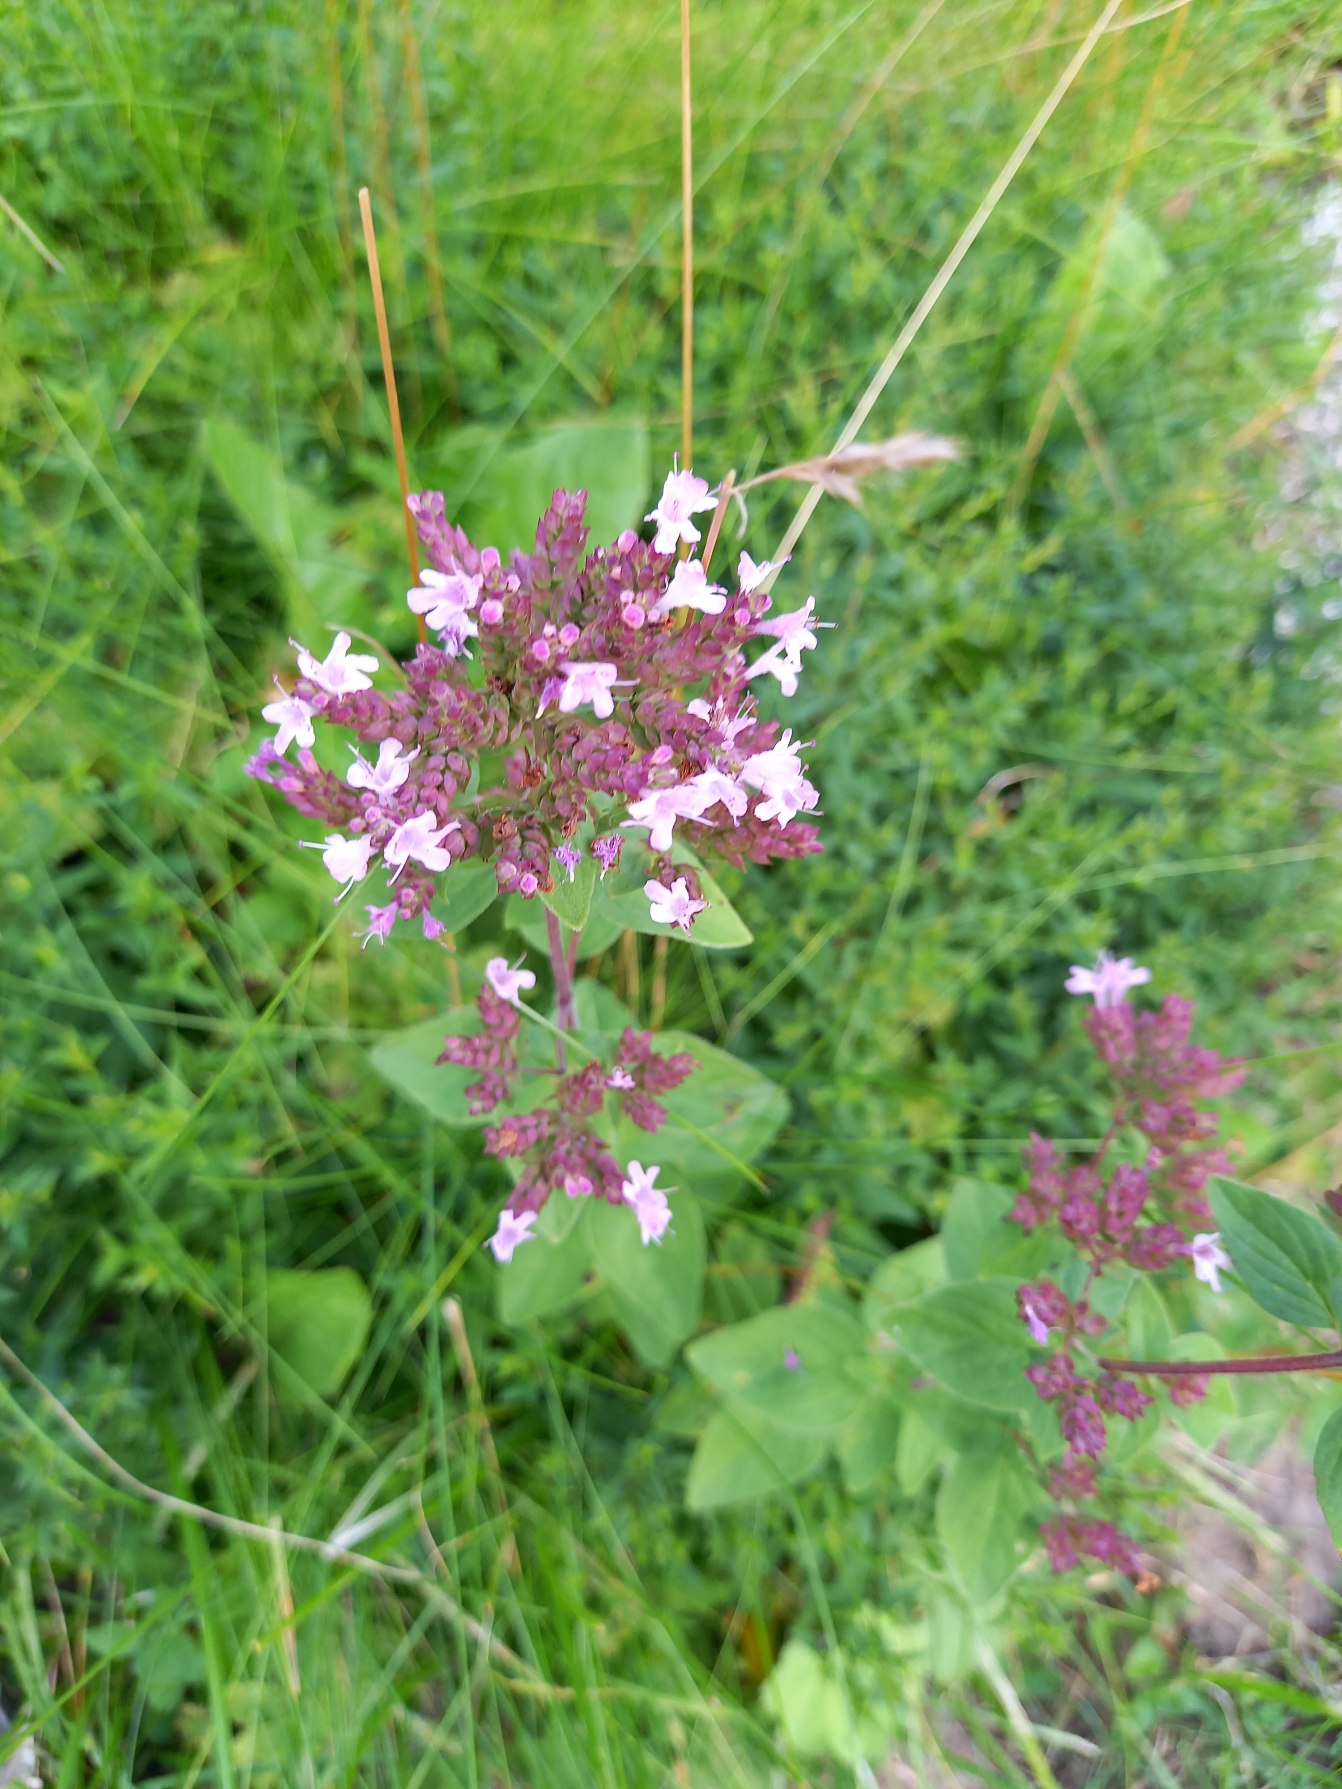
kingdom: Plantae
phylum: Tracheophyta
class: Magnoliopsida
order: Lamiales
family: Lamiaceae
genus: Origanum
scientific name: Origanum vulgare
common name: Merian
